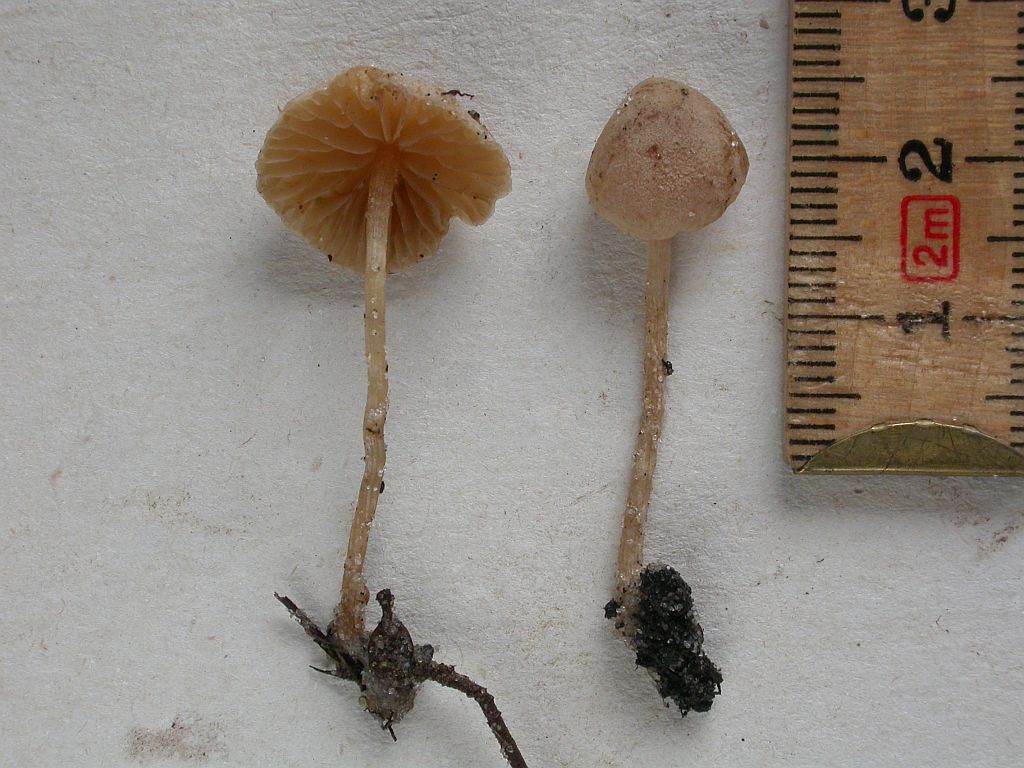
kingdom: Fungi
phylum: Basidiomycota
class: Agaricomycetes
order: Agaricales
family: Tubariaceae
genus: Flammulaster
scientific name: Flammulaster carpophilus
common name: bøge-grynskælhat
